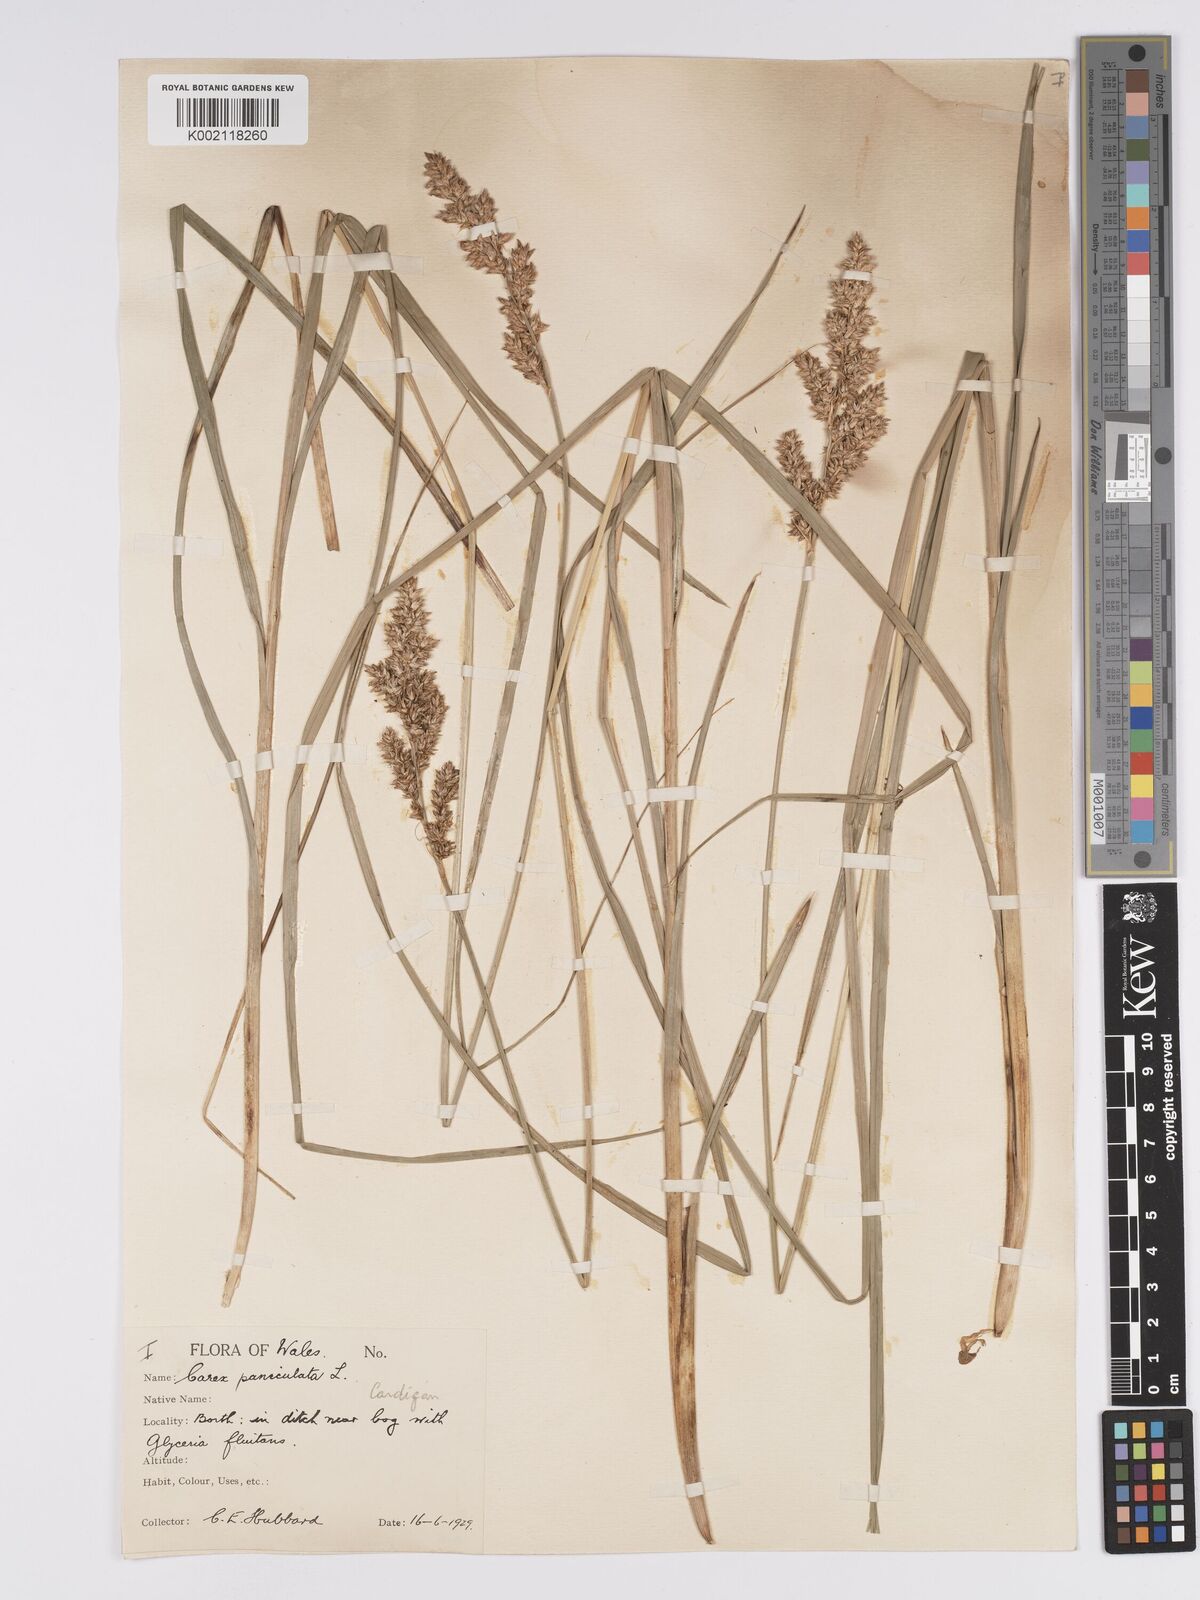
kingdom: Plantae
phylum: Tracheophyta
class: Liliopsida
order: Poales
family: Cyperaceae
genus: Carex
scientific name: Carex paniculata
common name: Greater tussock-sedge
